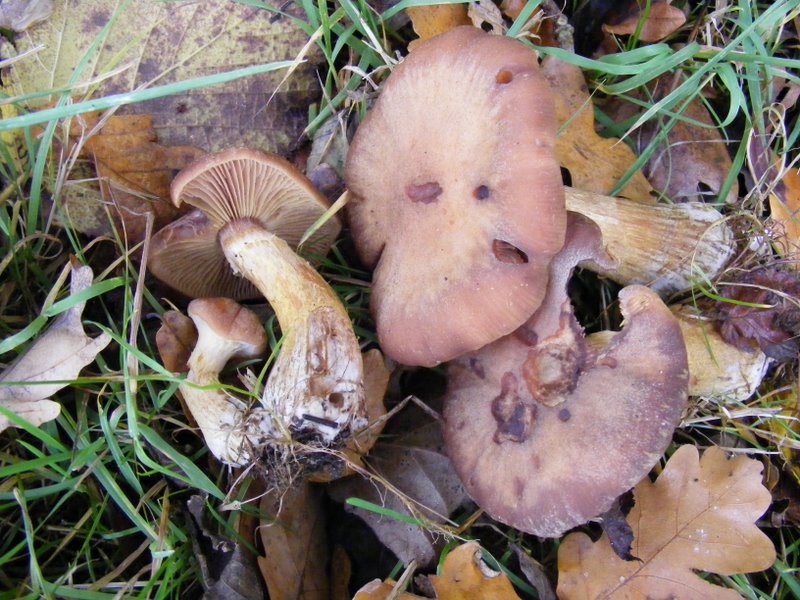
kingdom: Fungi
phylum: Basidiomycota
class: Agaricomycetes
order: Agaricales
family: Physalacriaceae
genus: Armillaria
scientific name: Armillaria lutea
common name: køllestokket honningsvamp
